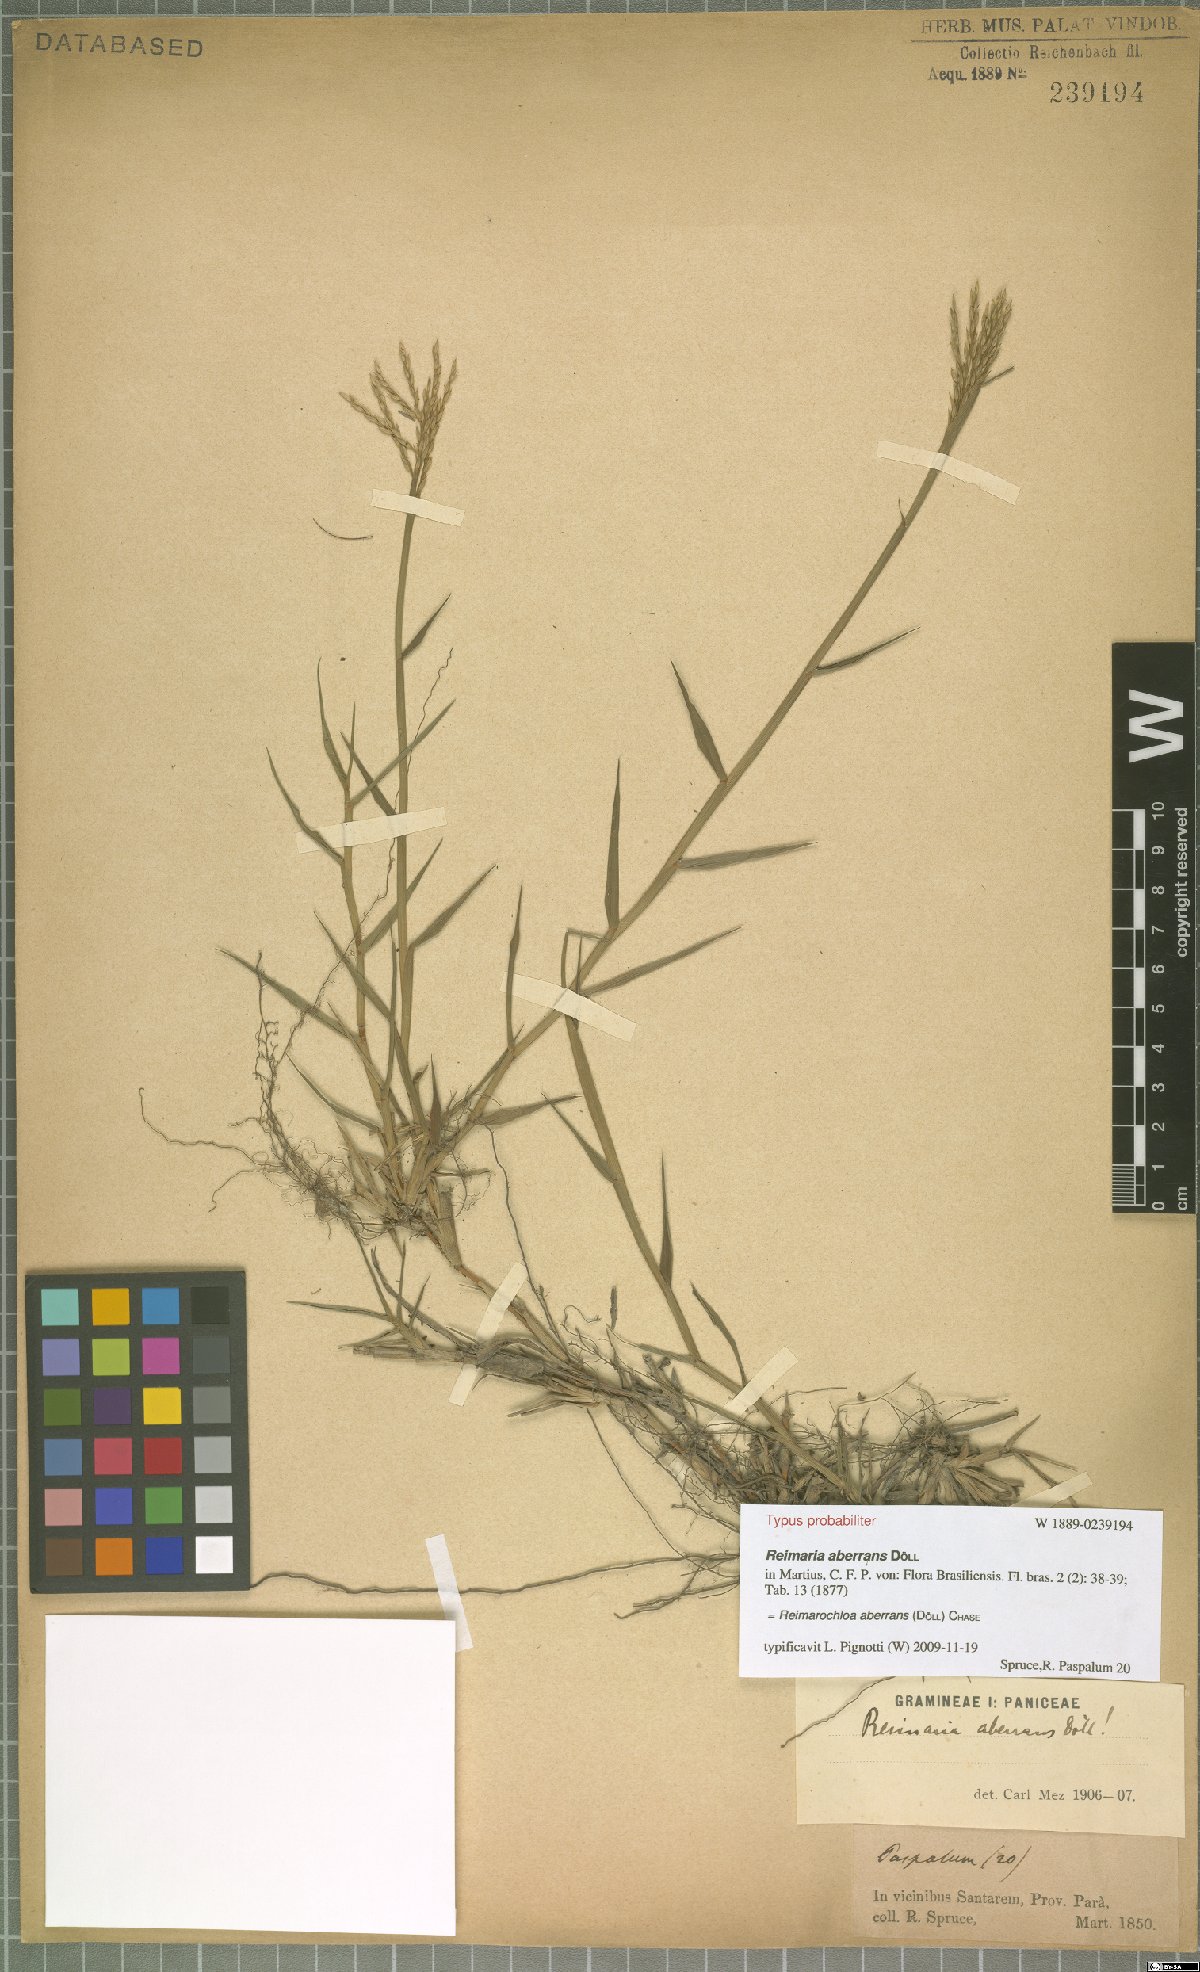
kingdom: Plantae
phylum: Tracheophyta
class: Liliopsida
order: Poales
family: Poaceae
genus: Paspalum
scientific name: Paspalum aberrans
